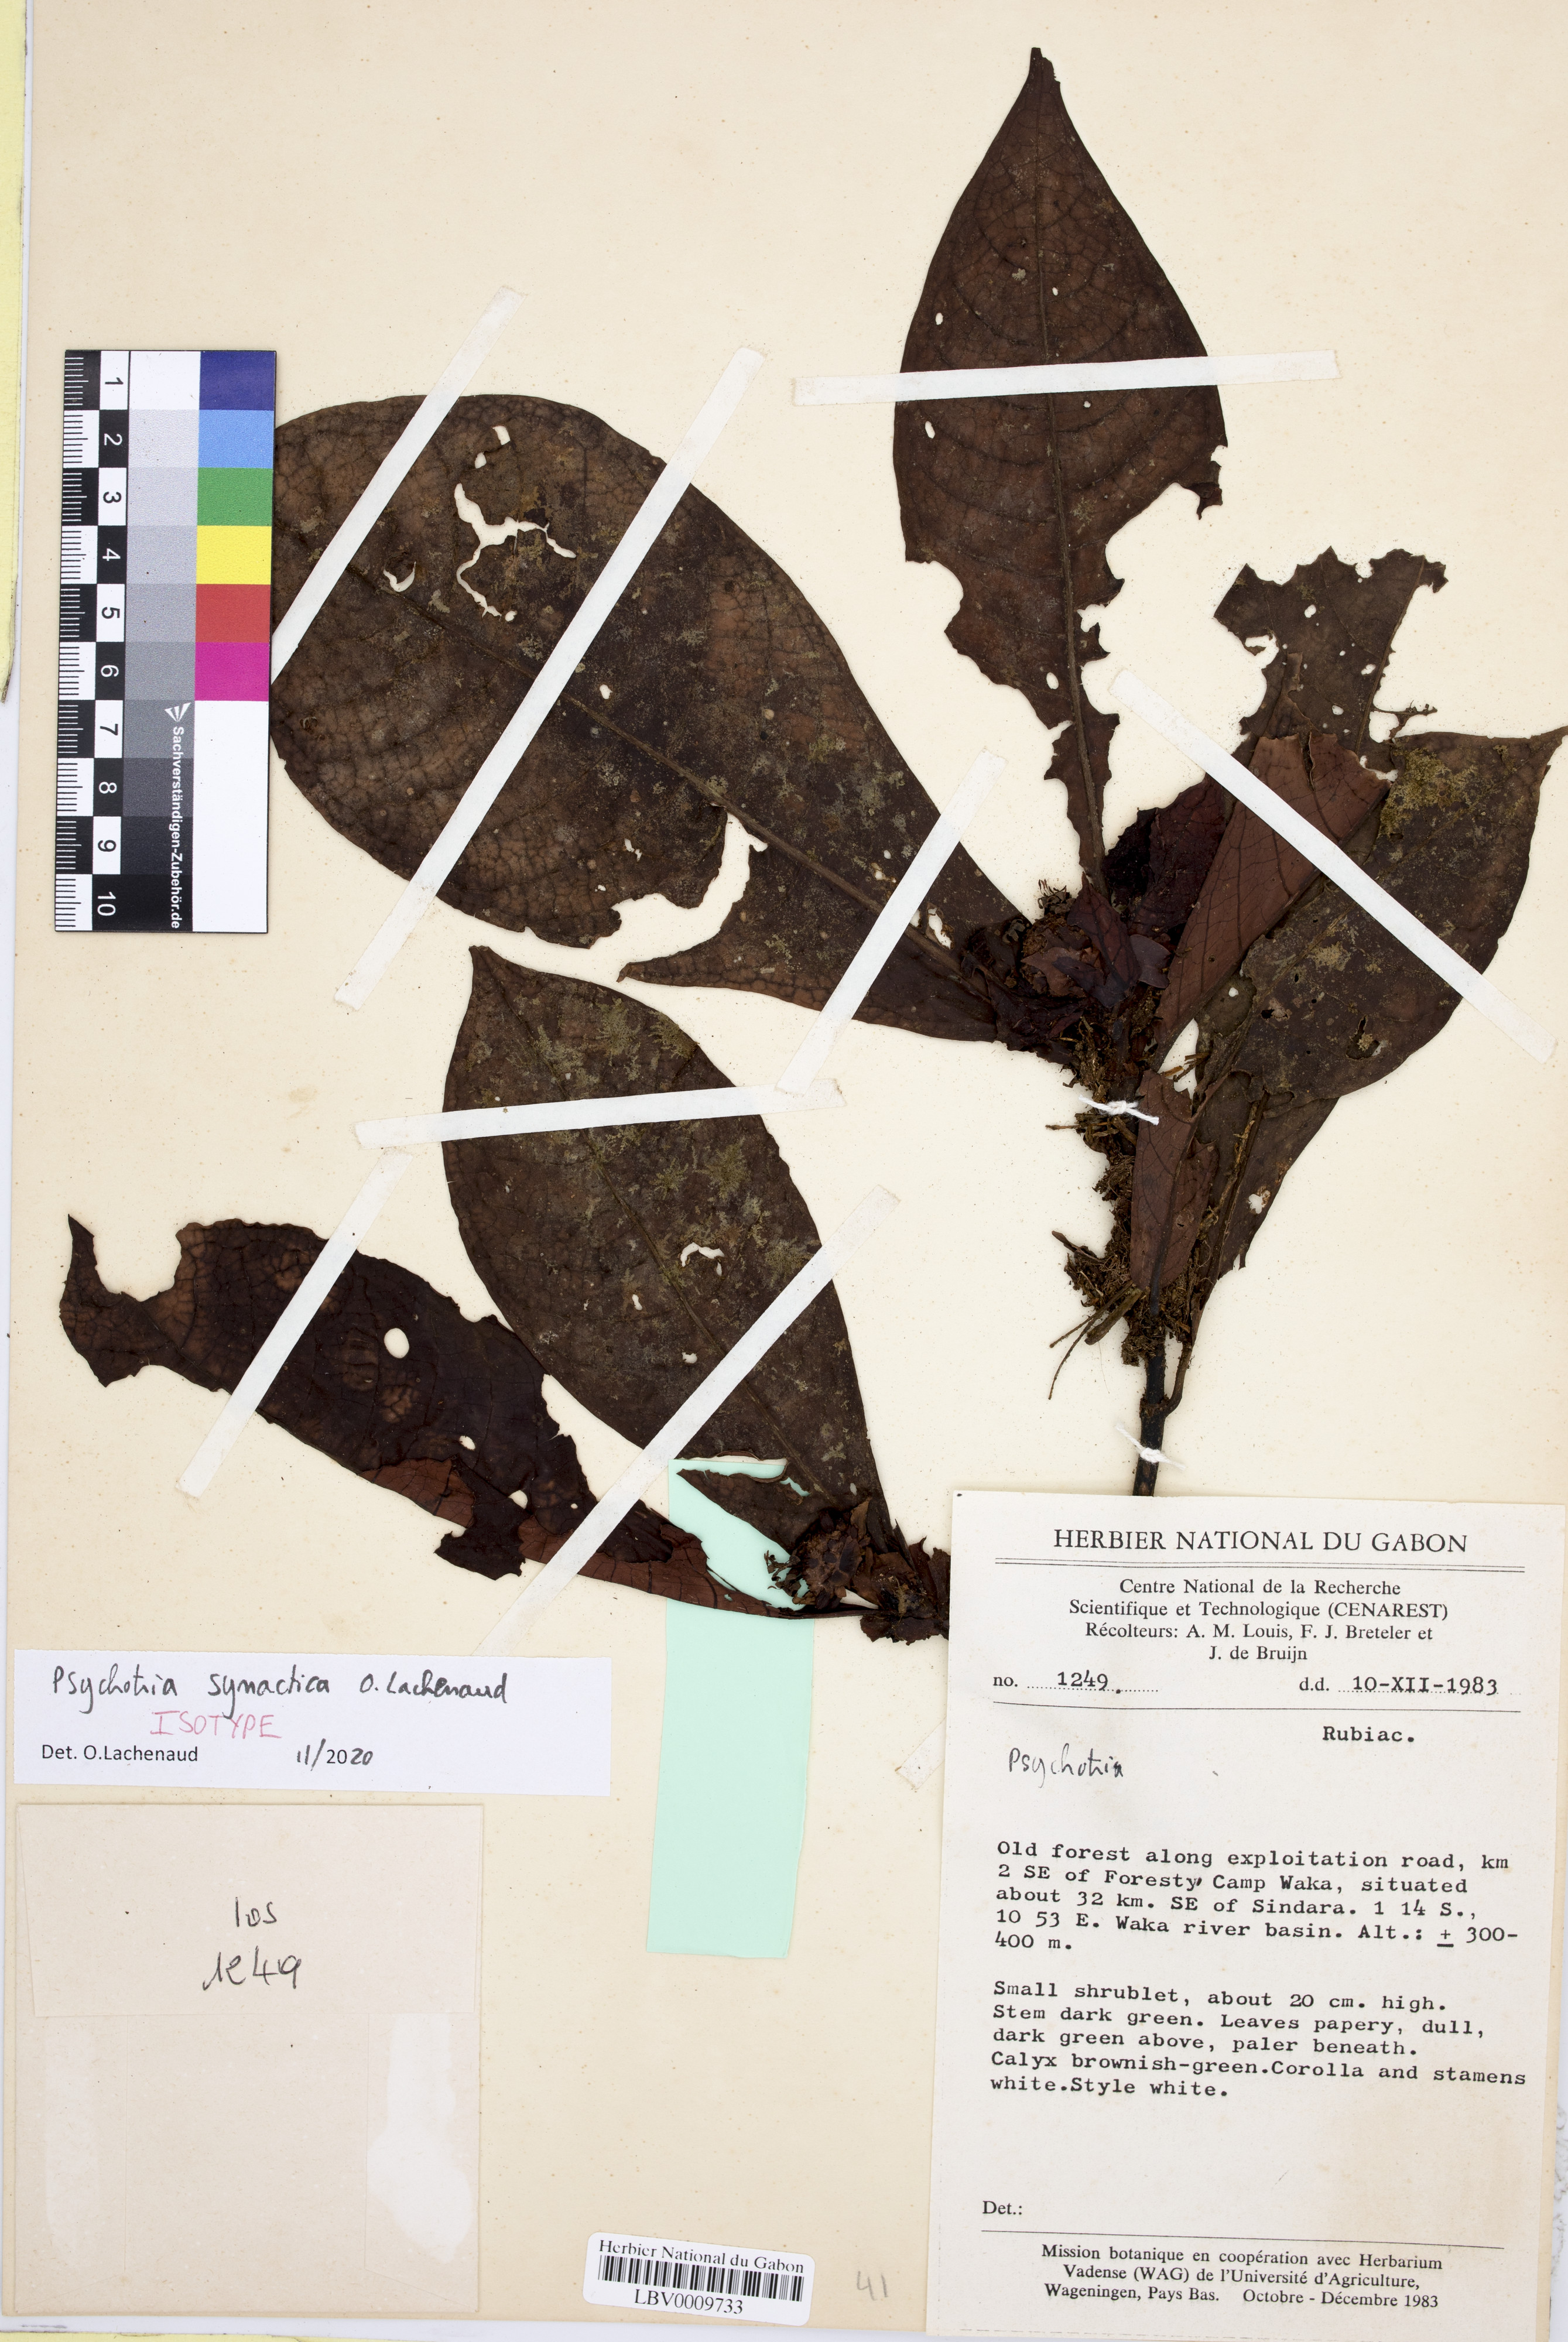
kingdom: Plantae
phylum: Tracheophyta
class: Magnoliopsida
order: Gentianales
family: Rubiaceae
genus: Psychotria
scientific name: Psychotria
